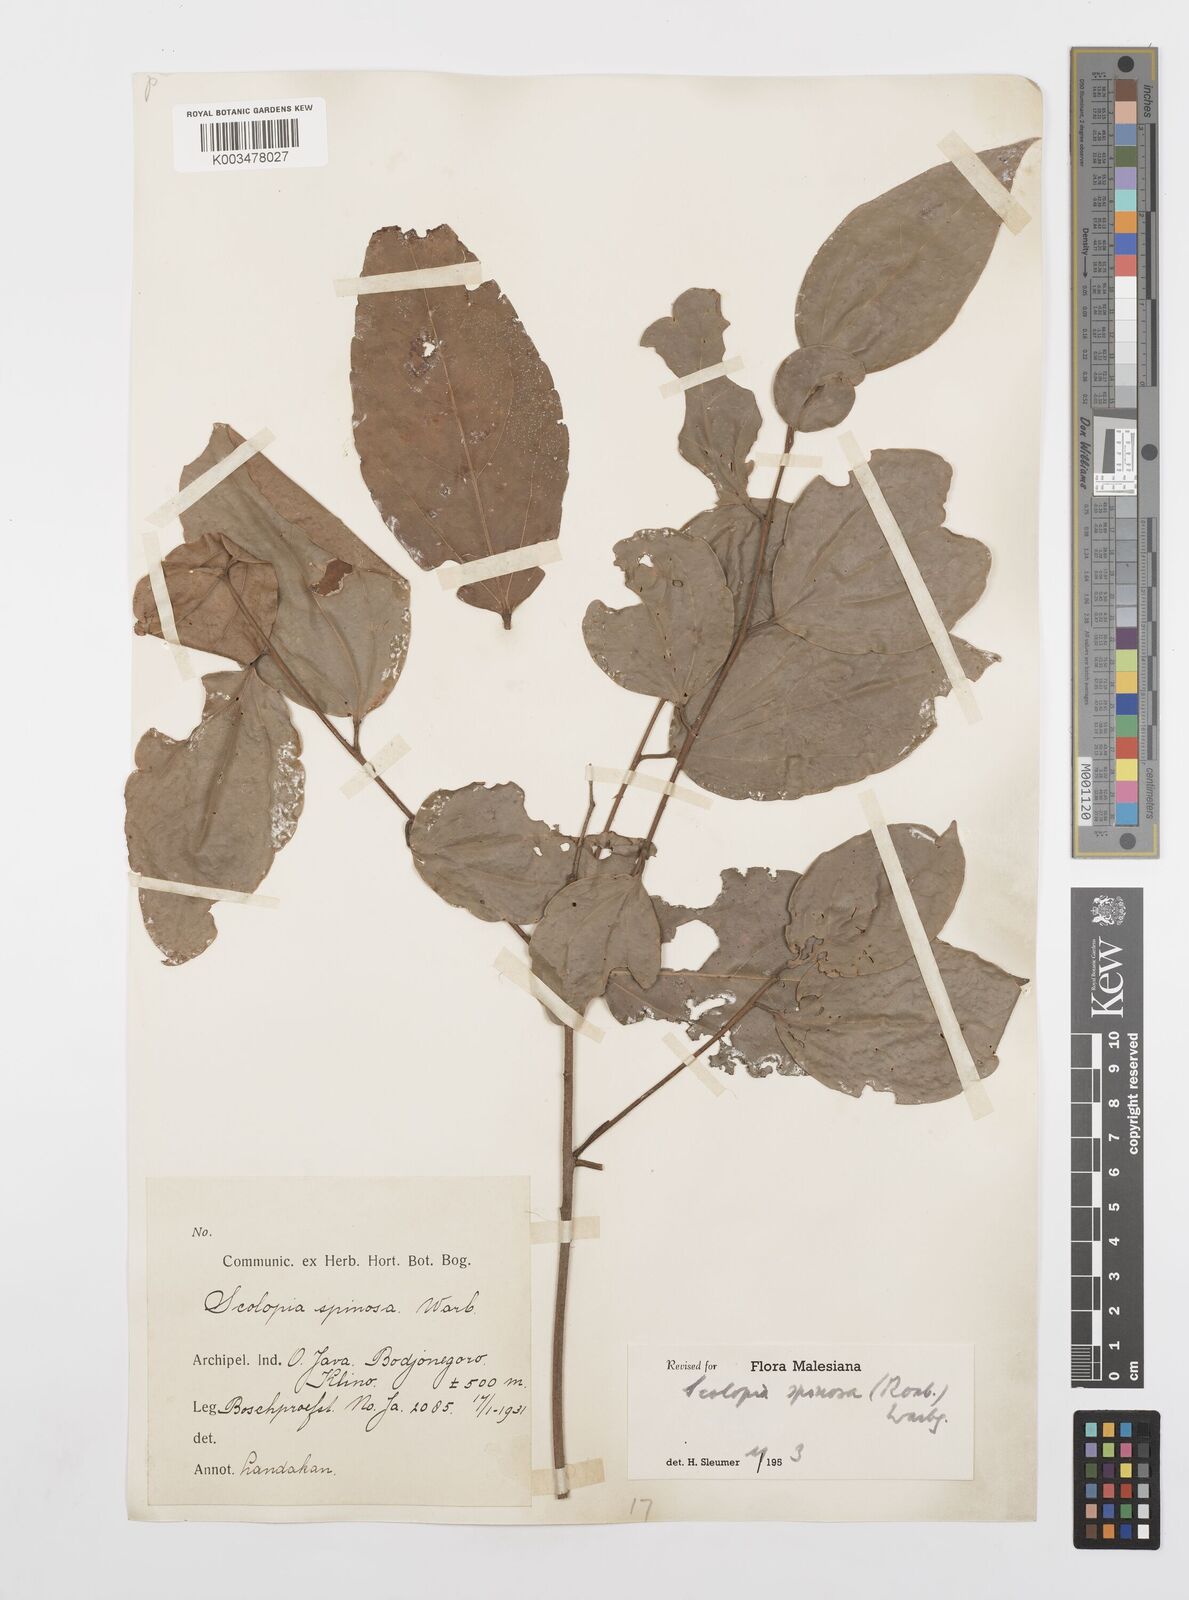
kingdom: Plantae
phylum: Tracheophyta
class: Magnoliopsida
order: Malpighiales
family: Salicaceae
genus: Scolopia
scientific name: Scolopia spinosa
